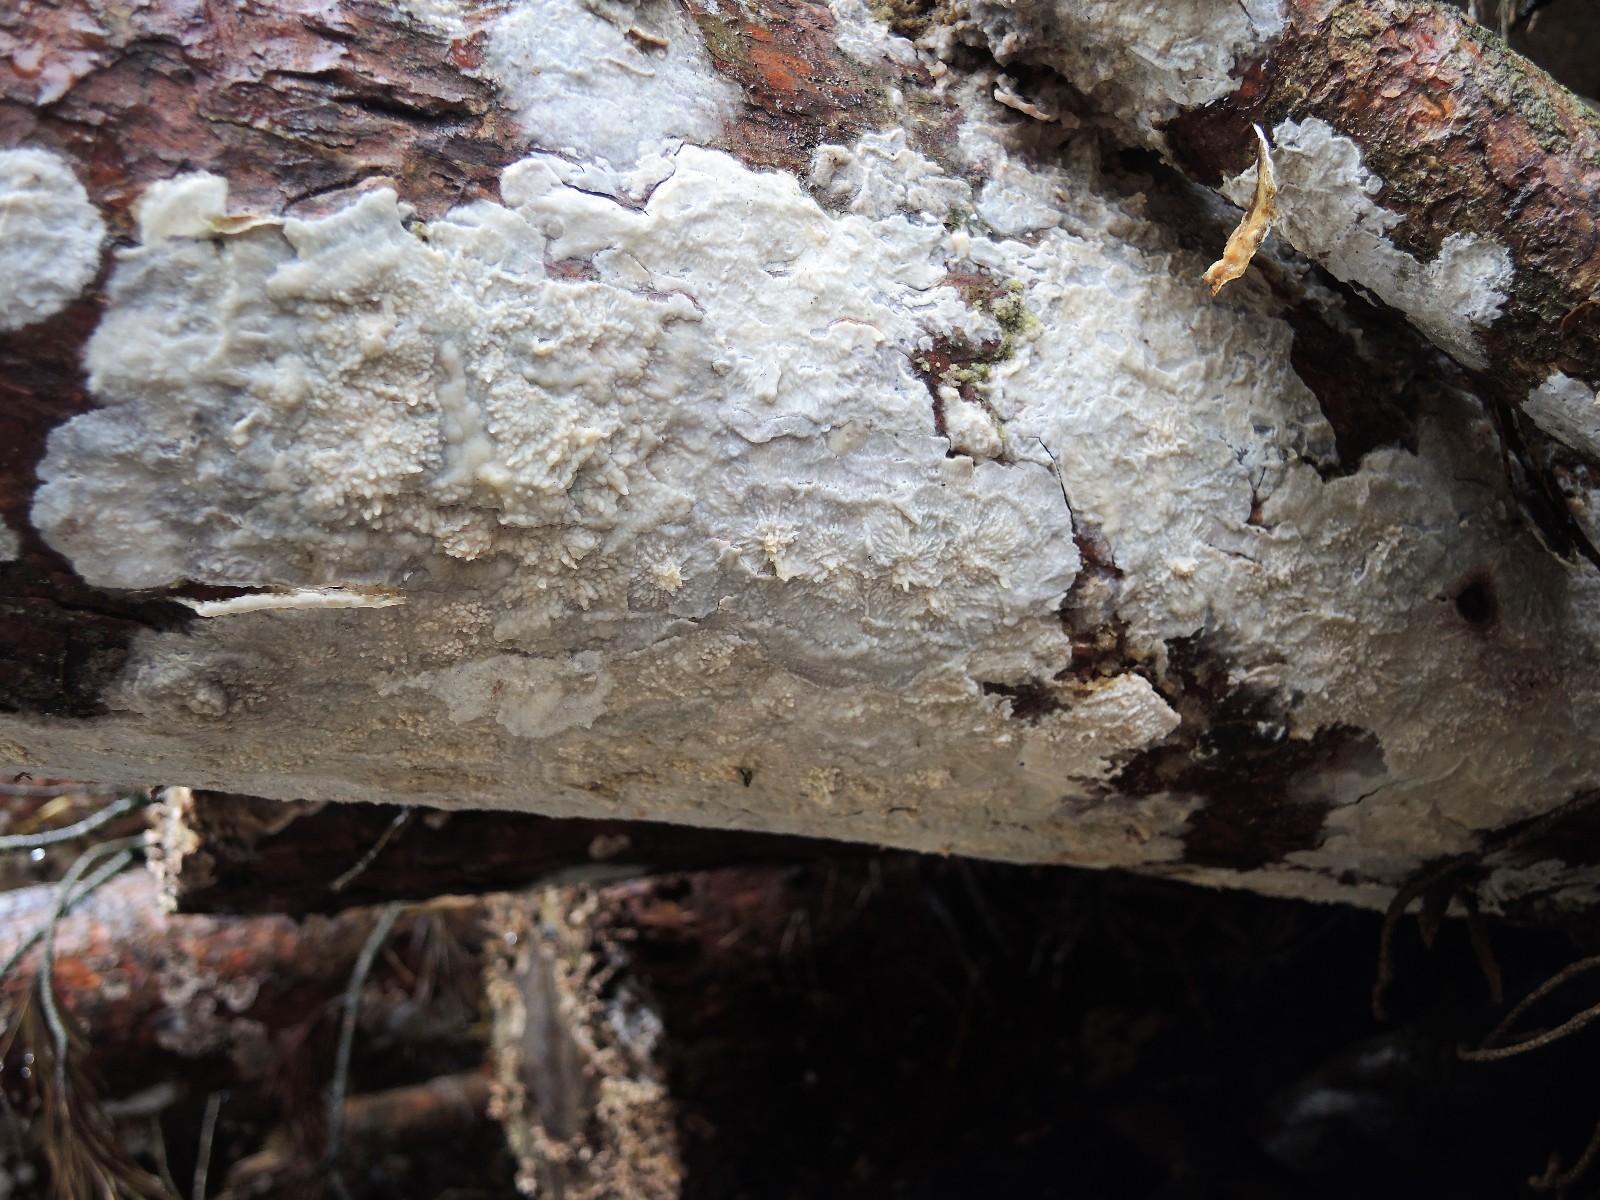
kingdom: Fungi
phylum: Basidiomycota
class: Agaricomycetes
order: Polyporales
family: Phanerochaetaceae
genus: Phlebiopsis
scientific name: Phlebiopsis gigantea
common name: kæmpebarksvamp
